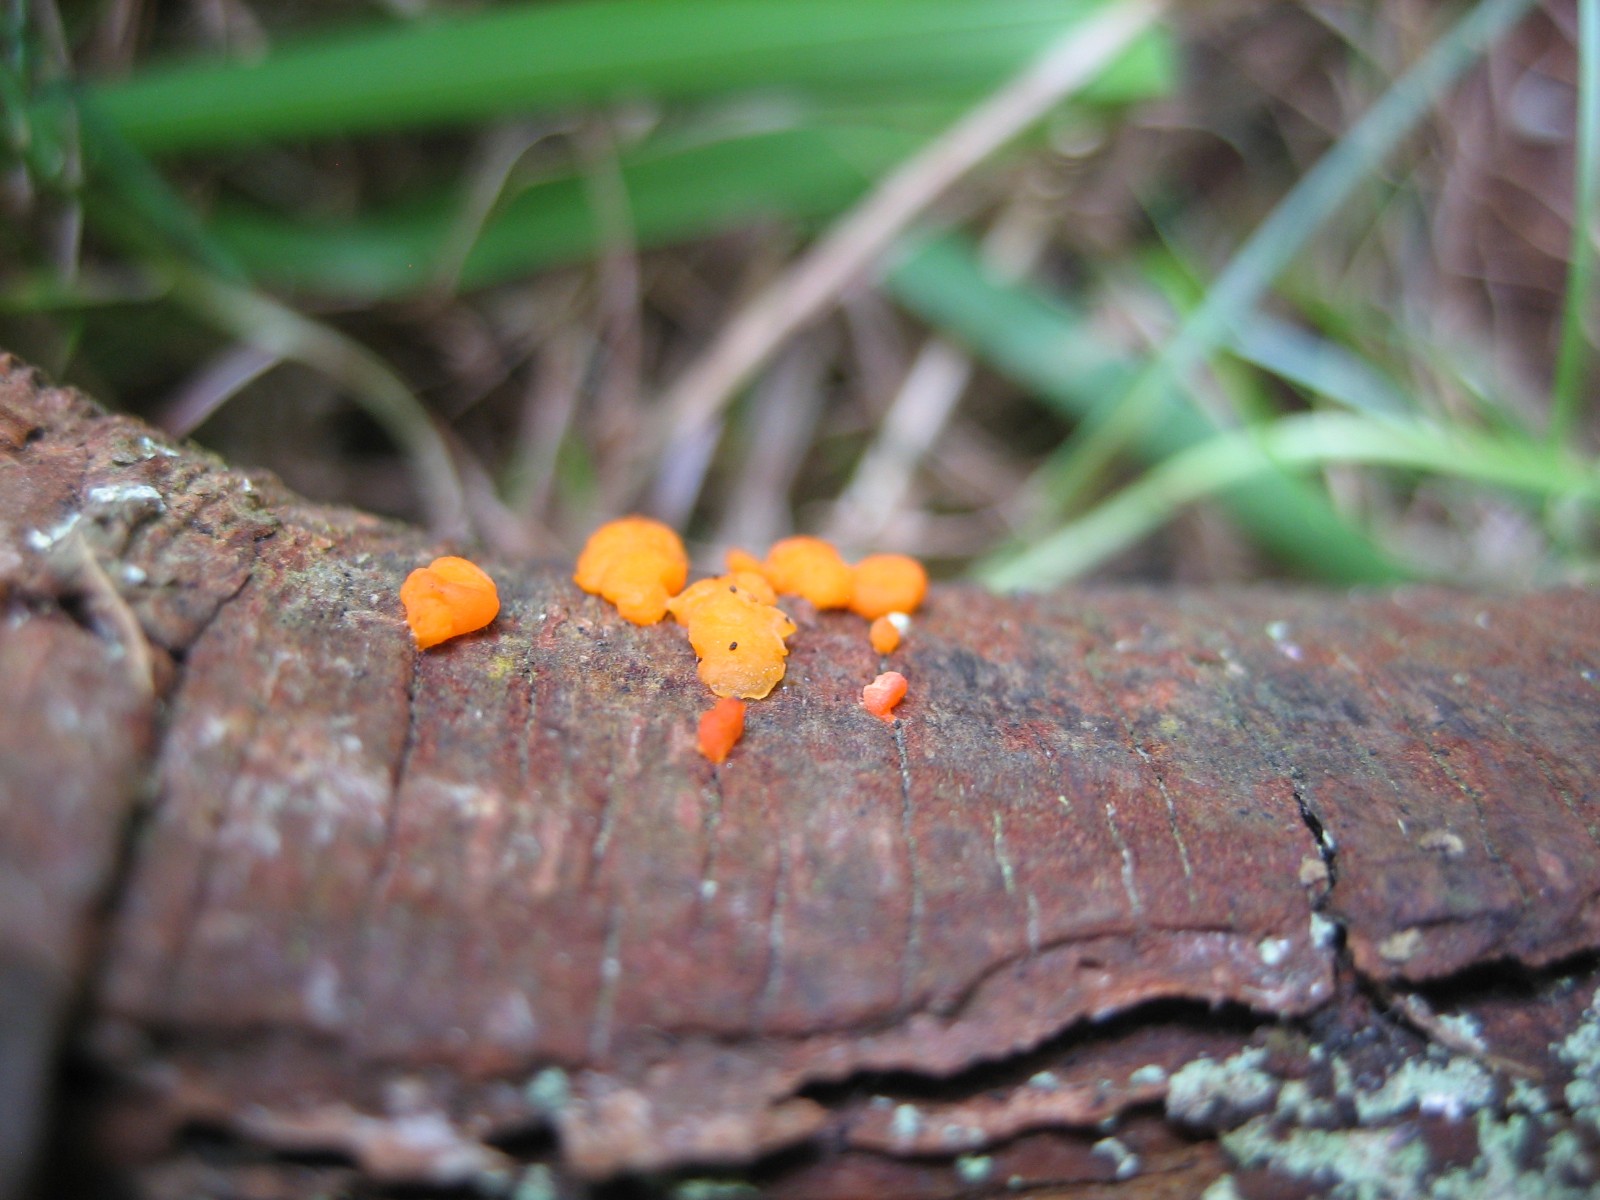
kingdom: Fungi
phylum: Basidiomycota
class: Dacrymycetes
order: Dacrymycetales
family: Dacrymycetaceae
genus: Dacrymyces
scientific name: Dacrymyces stillatus
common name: almindelig tåresvamp
